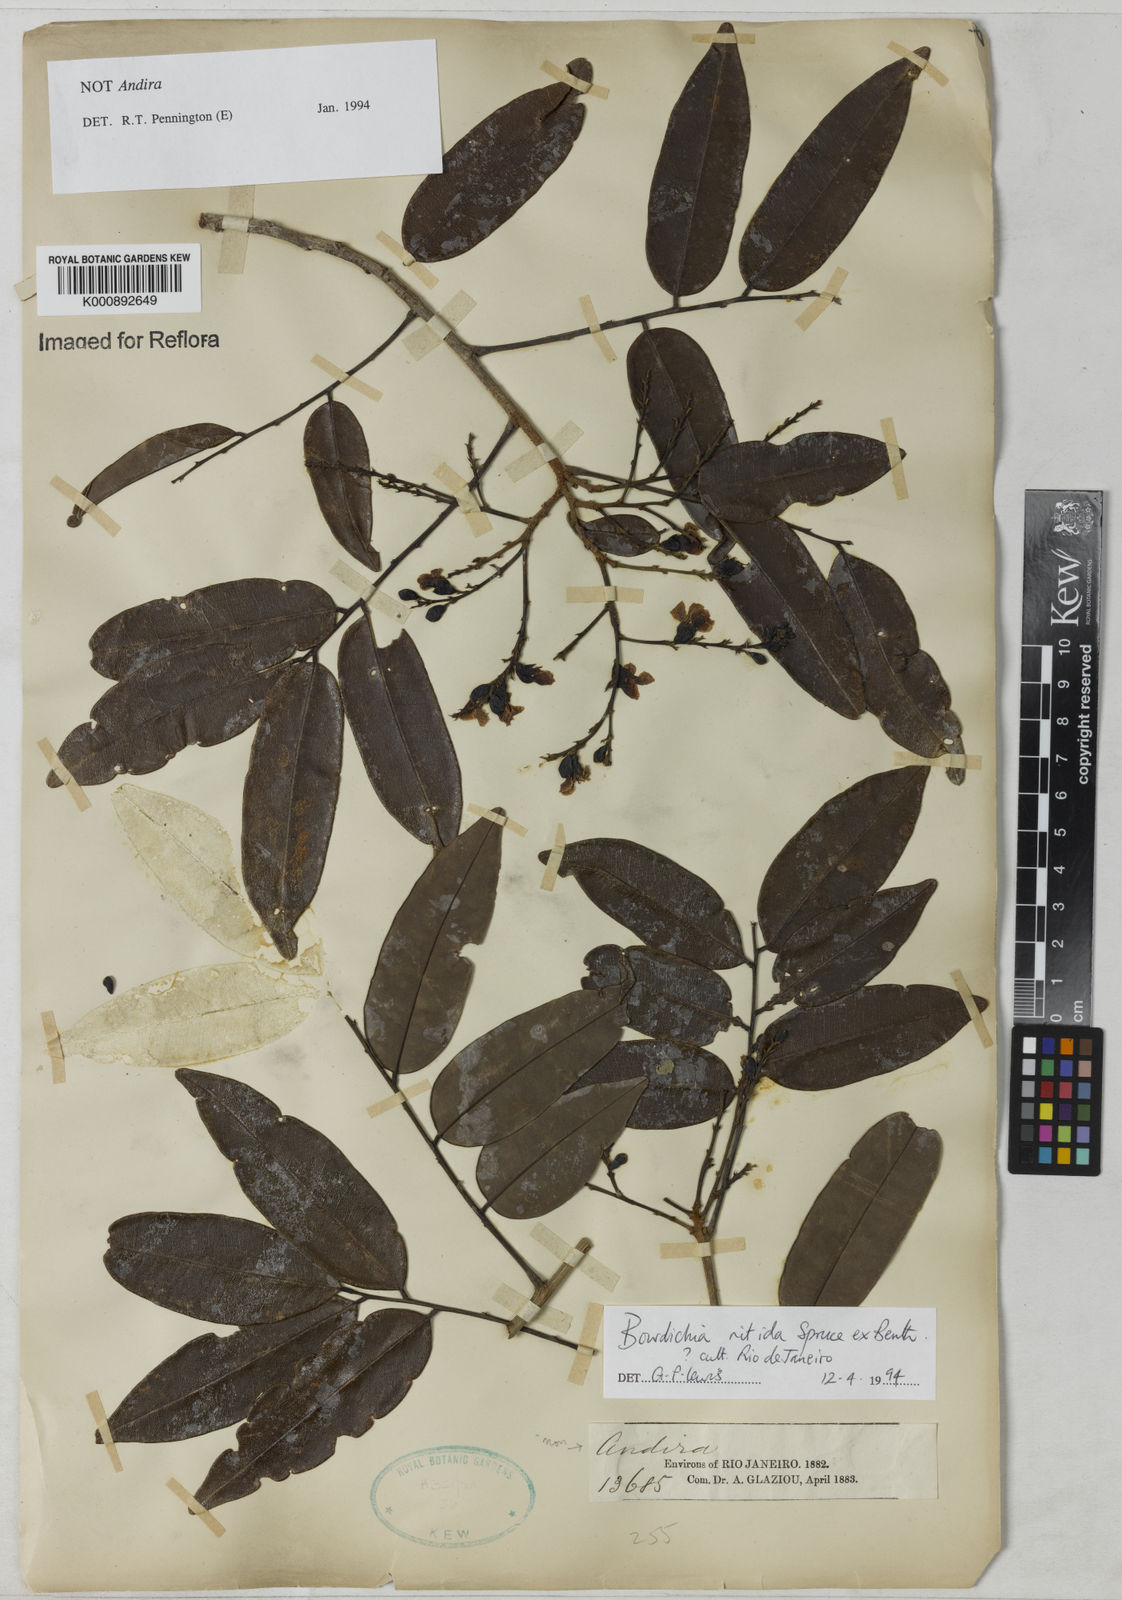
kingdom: Plantae
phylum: Tracheophyta
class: Magnoliopsida
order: Fabales
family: Fabaceae
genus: Bowdichia
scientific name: Bowdichia nitida
